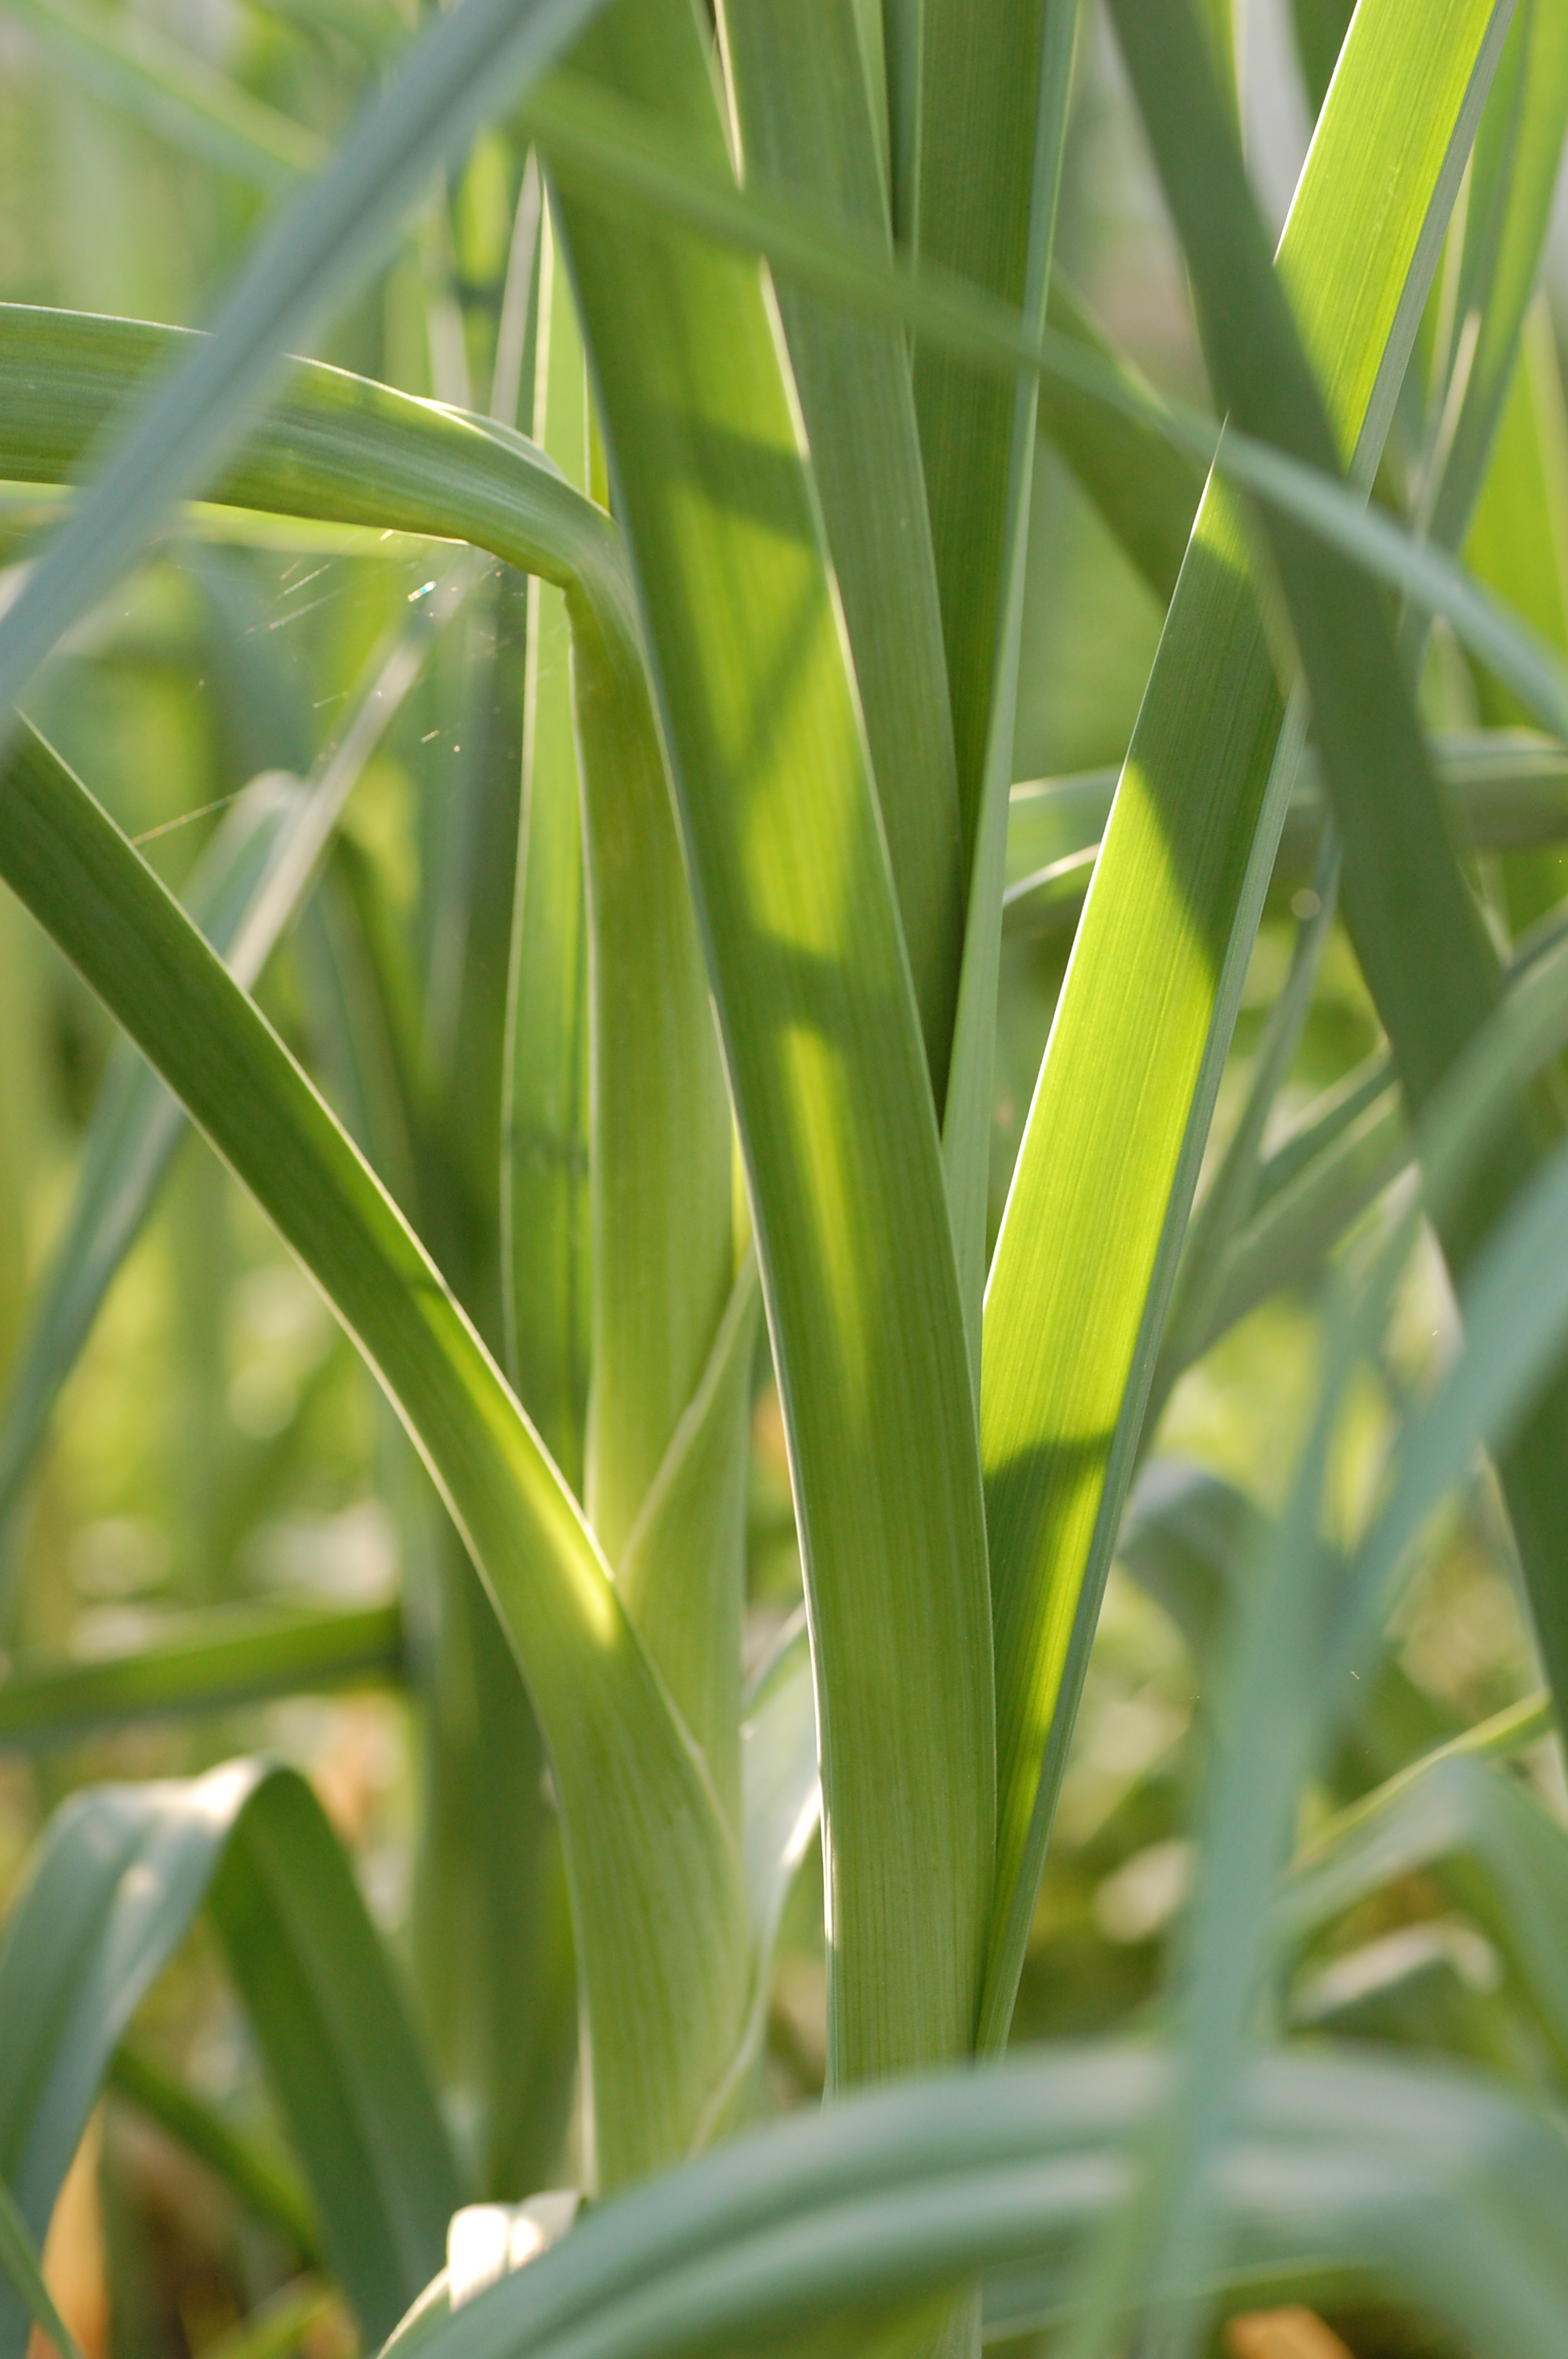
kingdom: Plantae
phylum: Tracheophyta
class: Liliopsida
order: Asparagales
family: Amaryllidaceae
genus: Allium
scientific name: Allium ampeloprasum
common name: Wild leek
